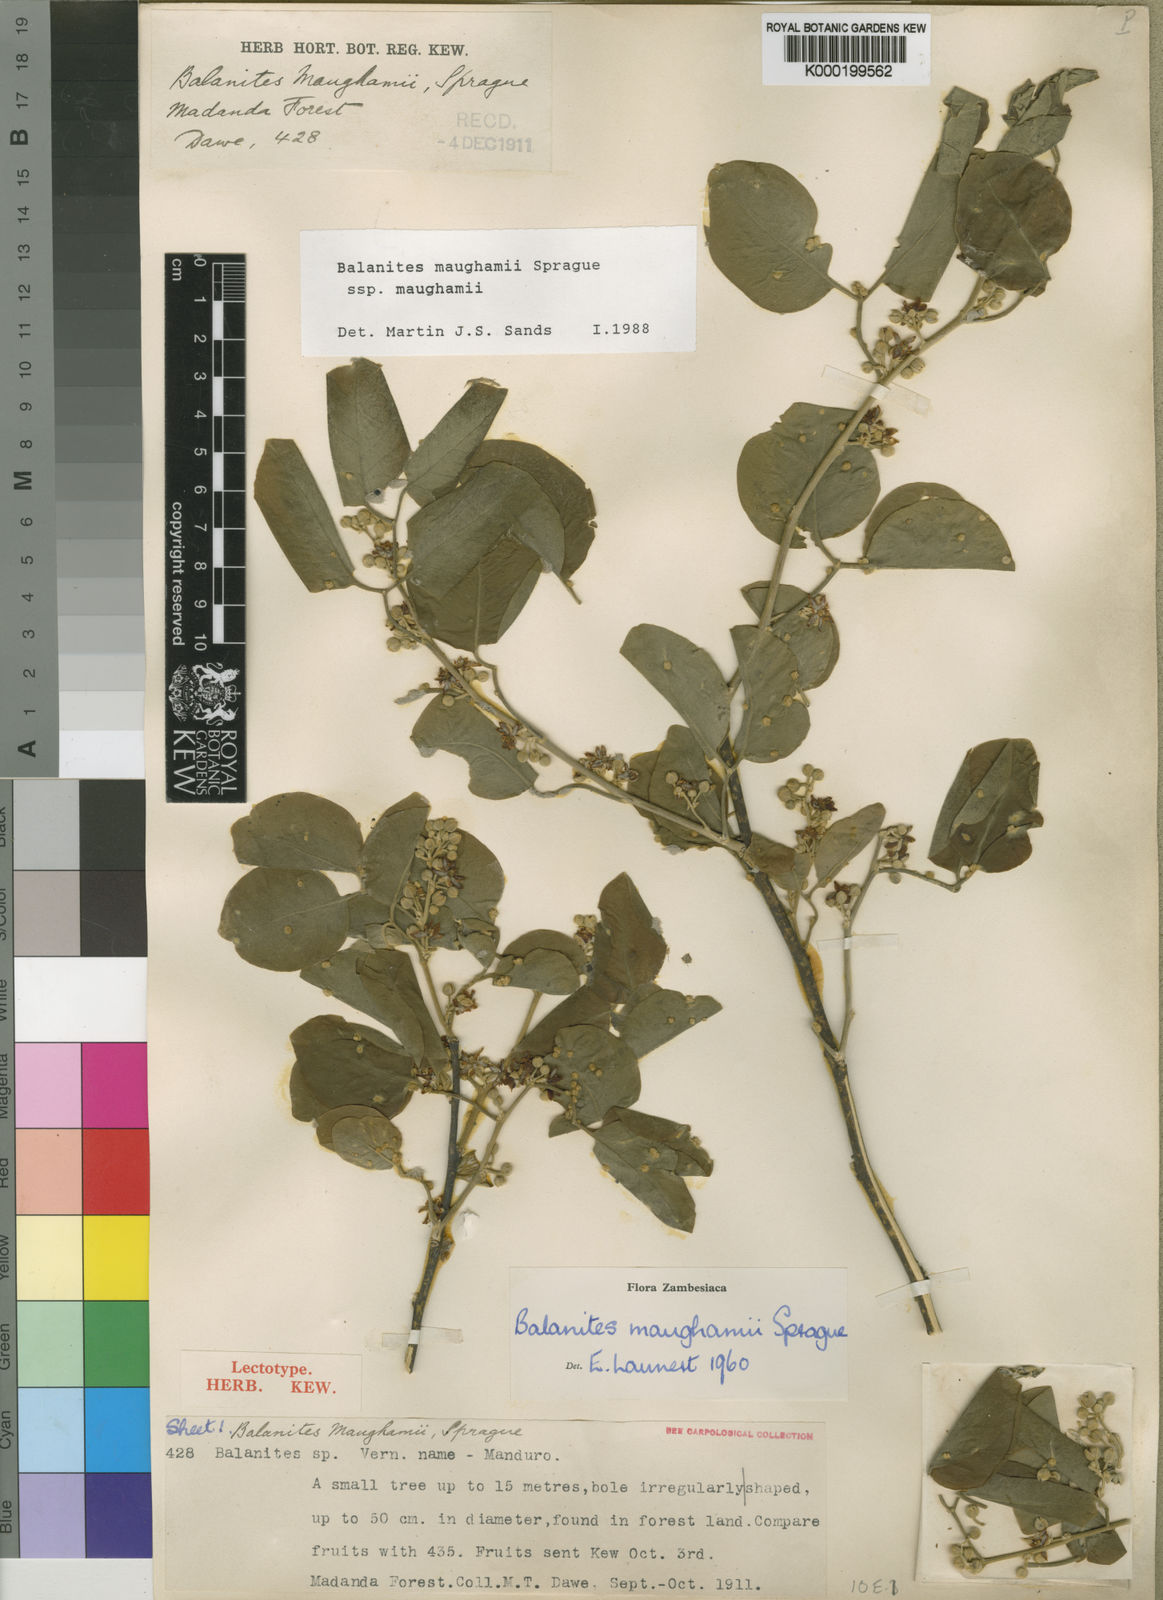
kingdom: Plantae
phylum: Tracheophyta
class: Magnoliopsida
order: Zygophyllales
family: Zygophyllaceae
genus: Balanites
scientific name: Balanites maughamii
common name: Torchwood
